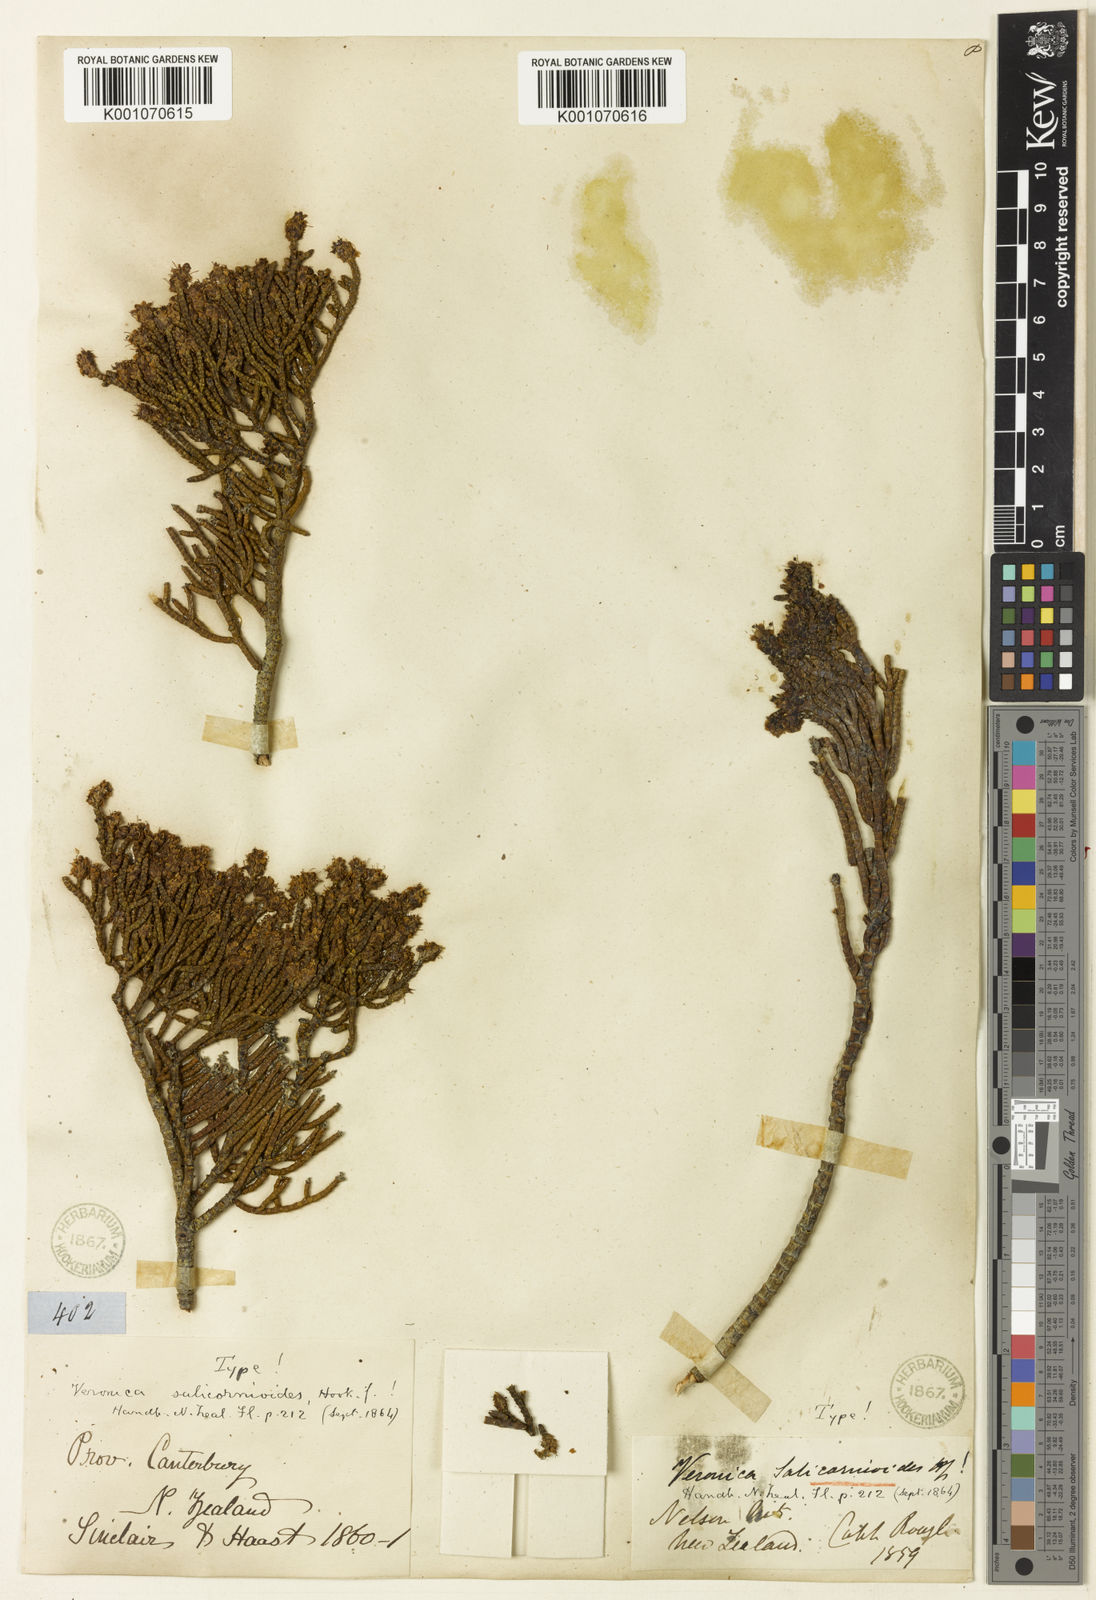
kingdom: Plantae
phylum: Tracheophyta
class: Magnoliopsida
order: Lamiales
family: Plantaginaceae
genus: Veronica
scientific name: Veronica salicornioides
